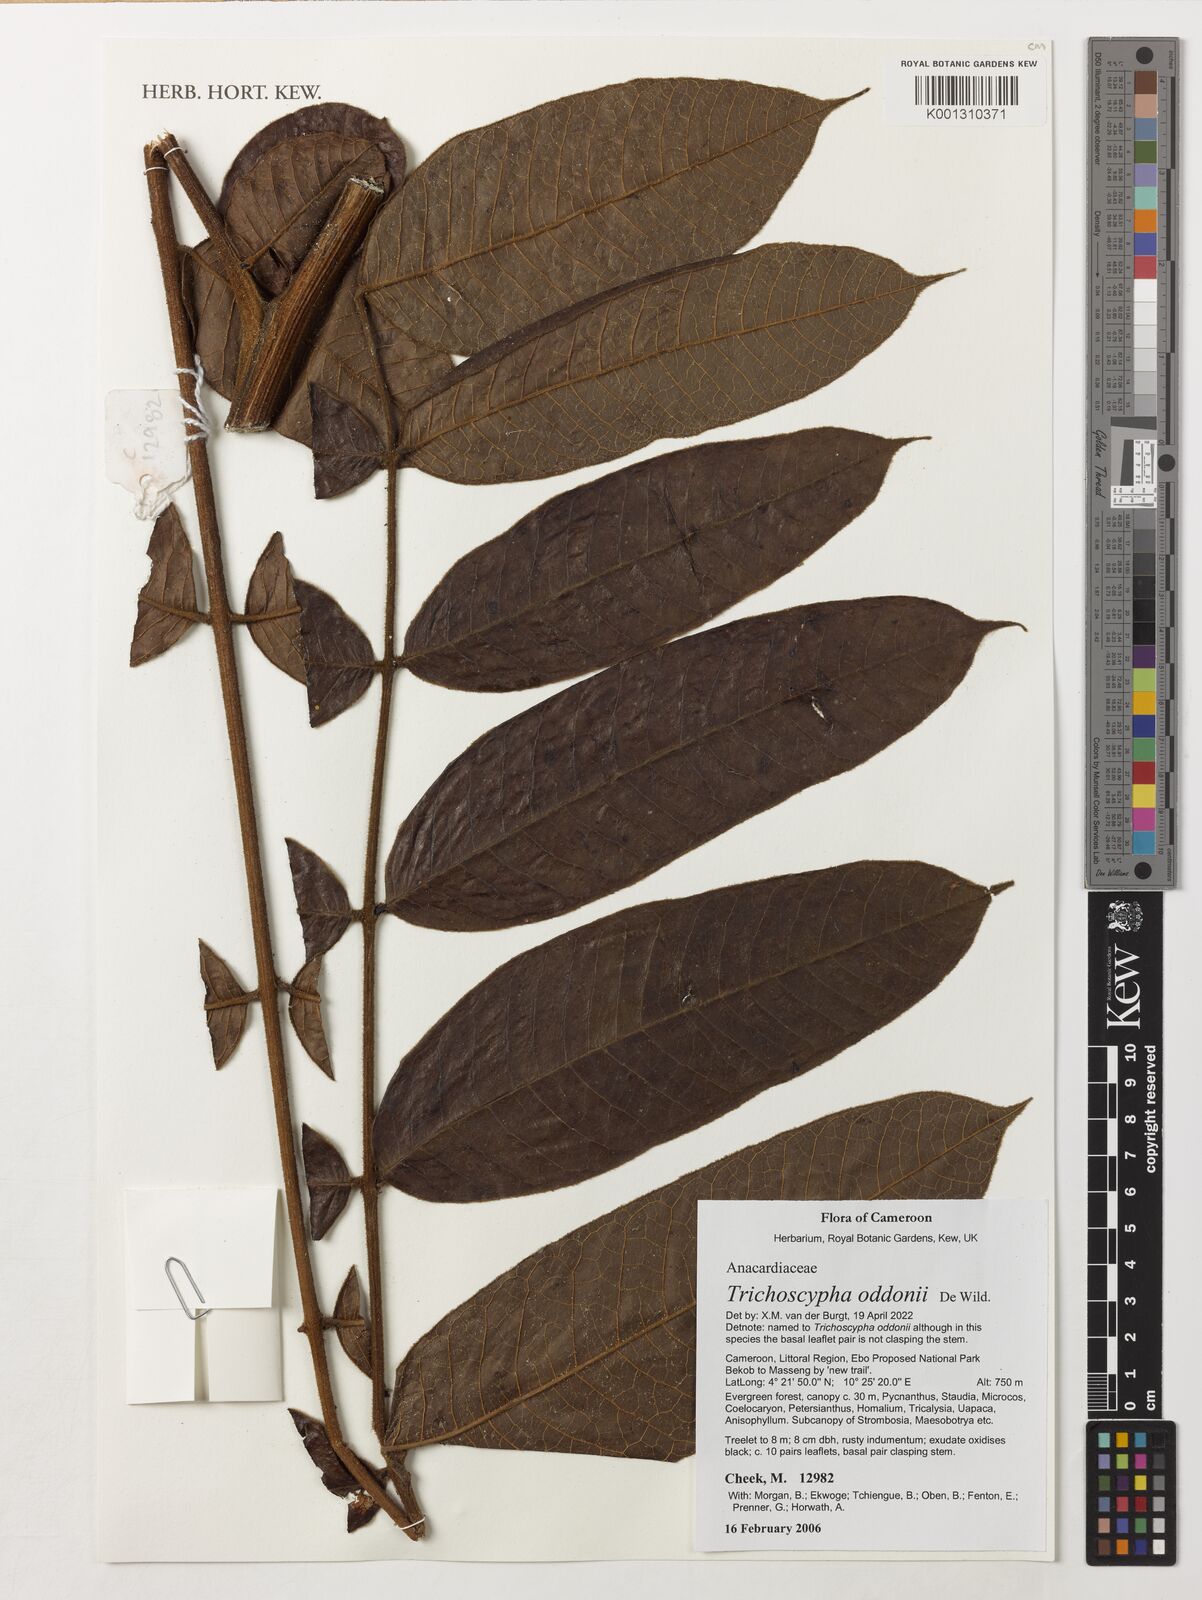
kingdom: Plantae
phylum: Tracheophyta
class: Magnoliopsida
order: Laurales
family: Siparunaceae
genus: Glossocalyx
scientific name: Glossocalyx longicuspis
